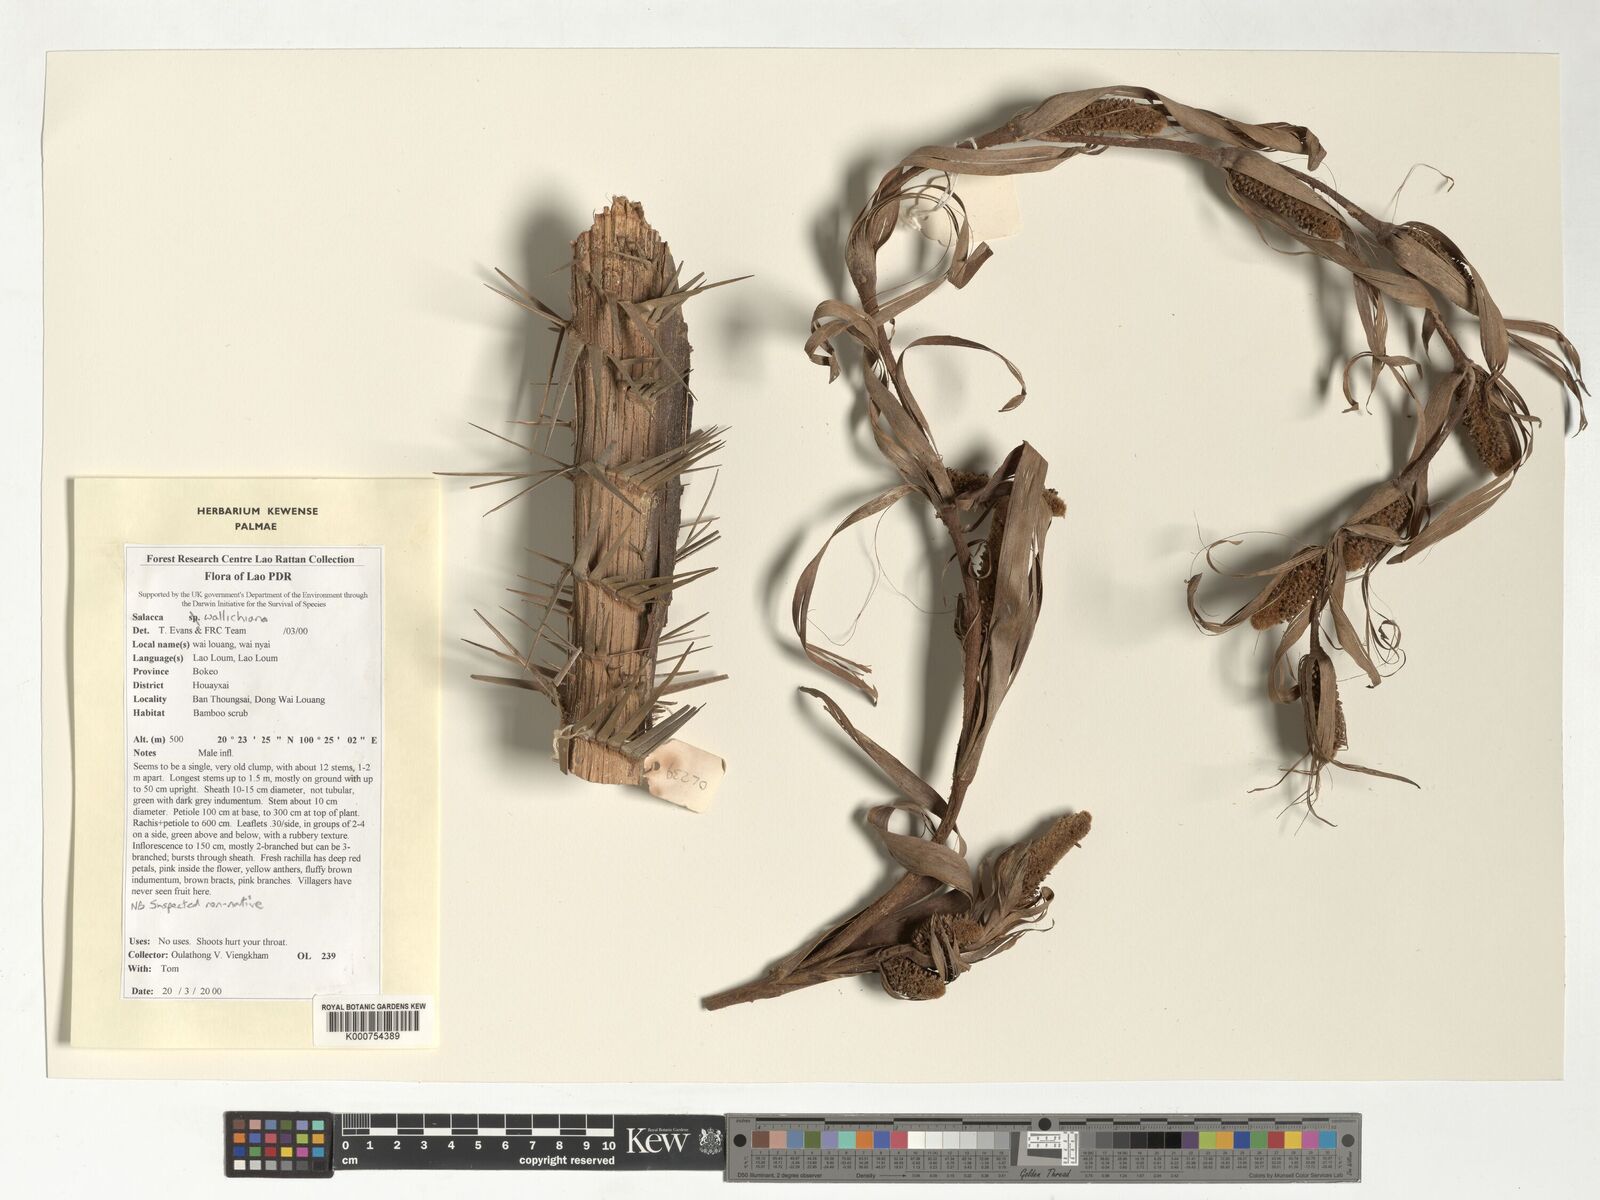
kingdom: Plantae
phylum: Tracheophyta
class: Liliopsida
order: Arecales
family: Arecaceae
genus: Salacca
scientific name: Salacca wallichiana
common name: Rakum palm
